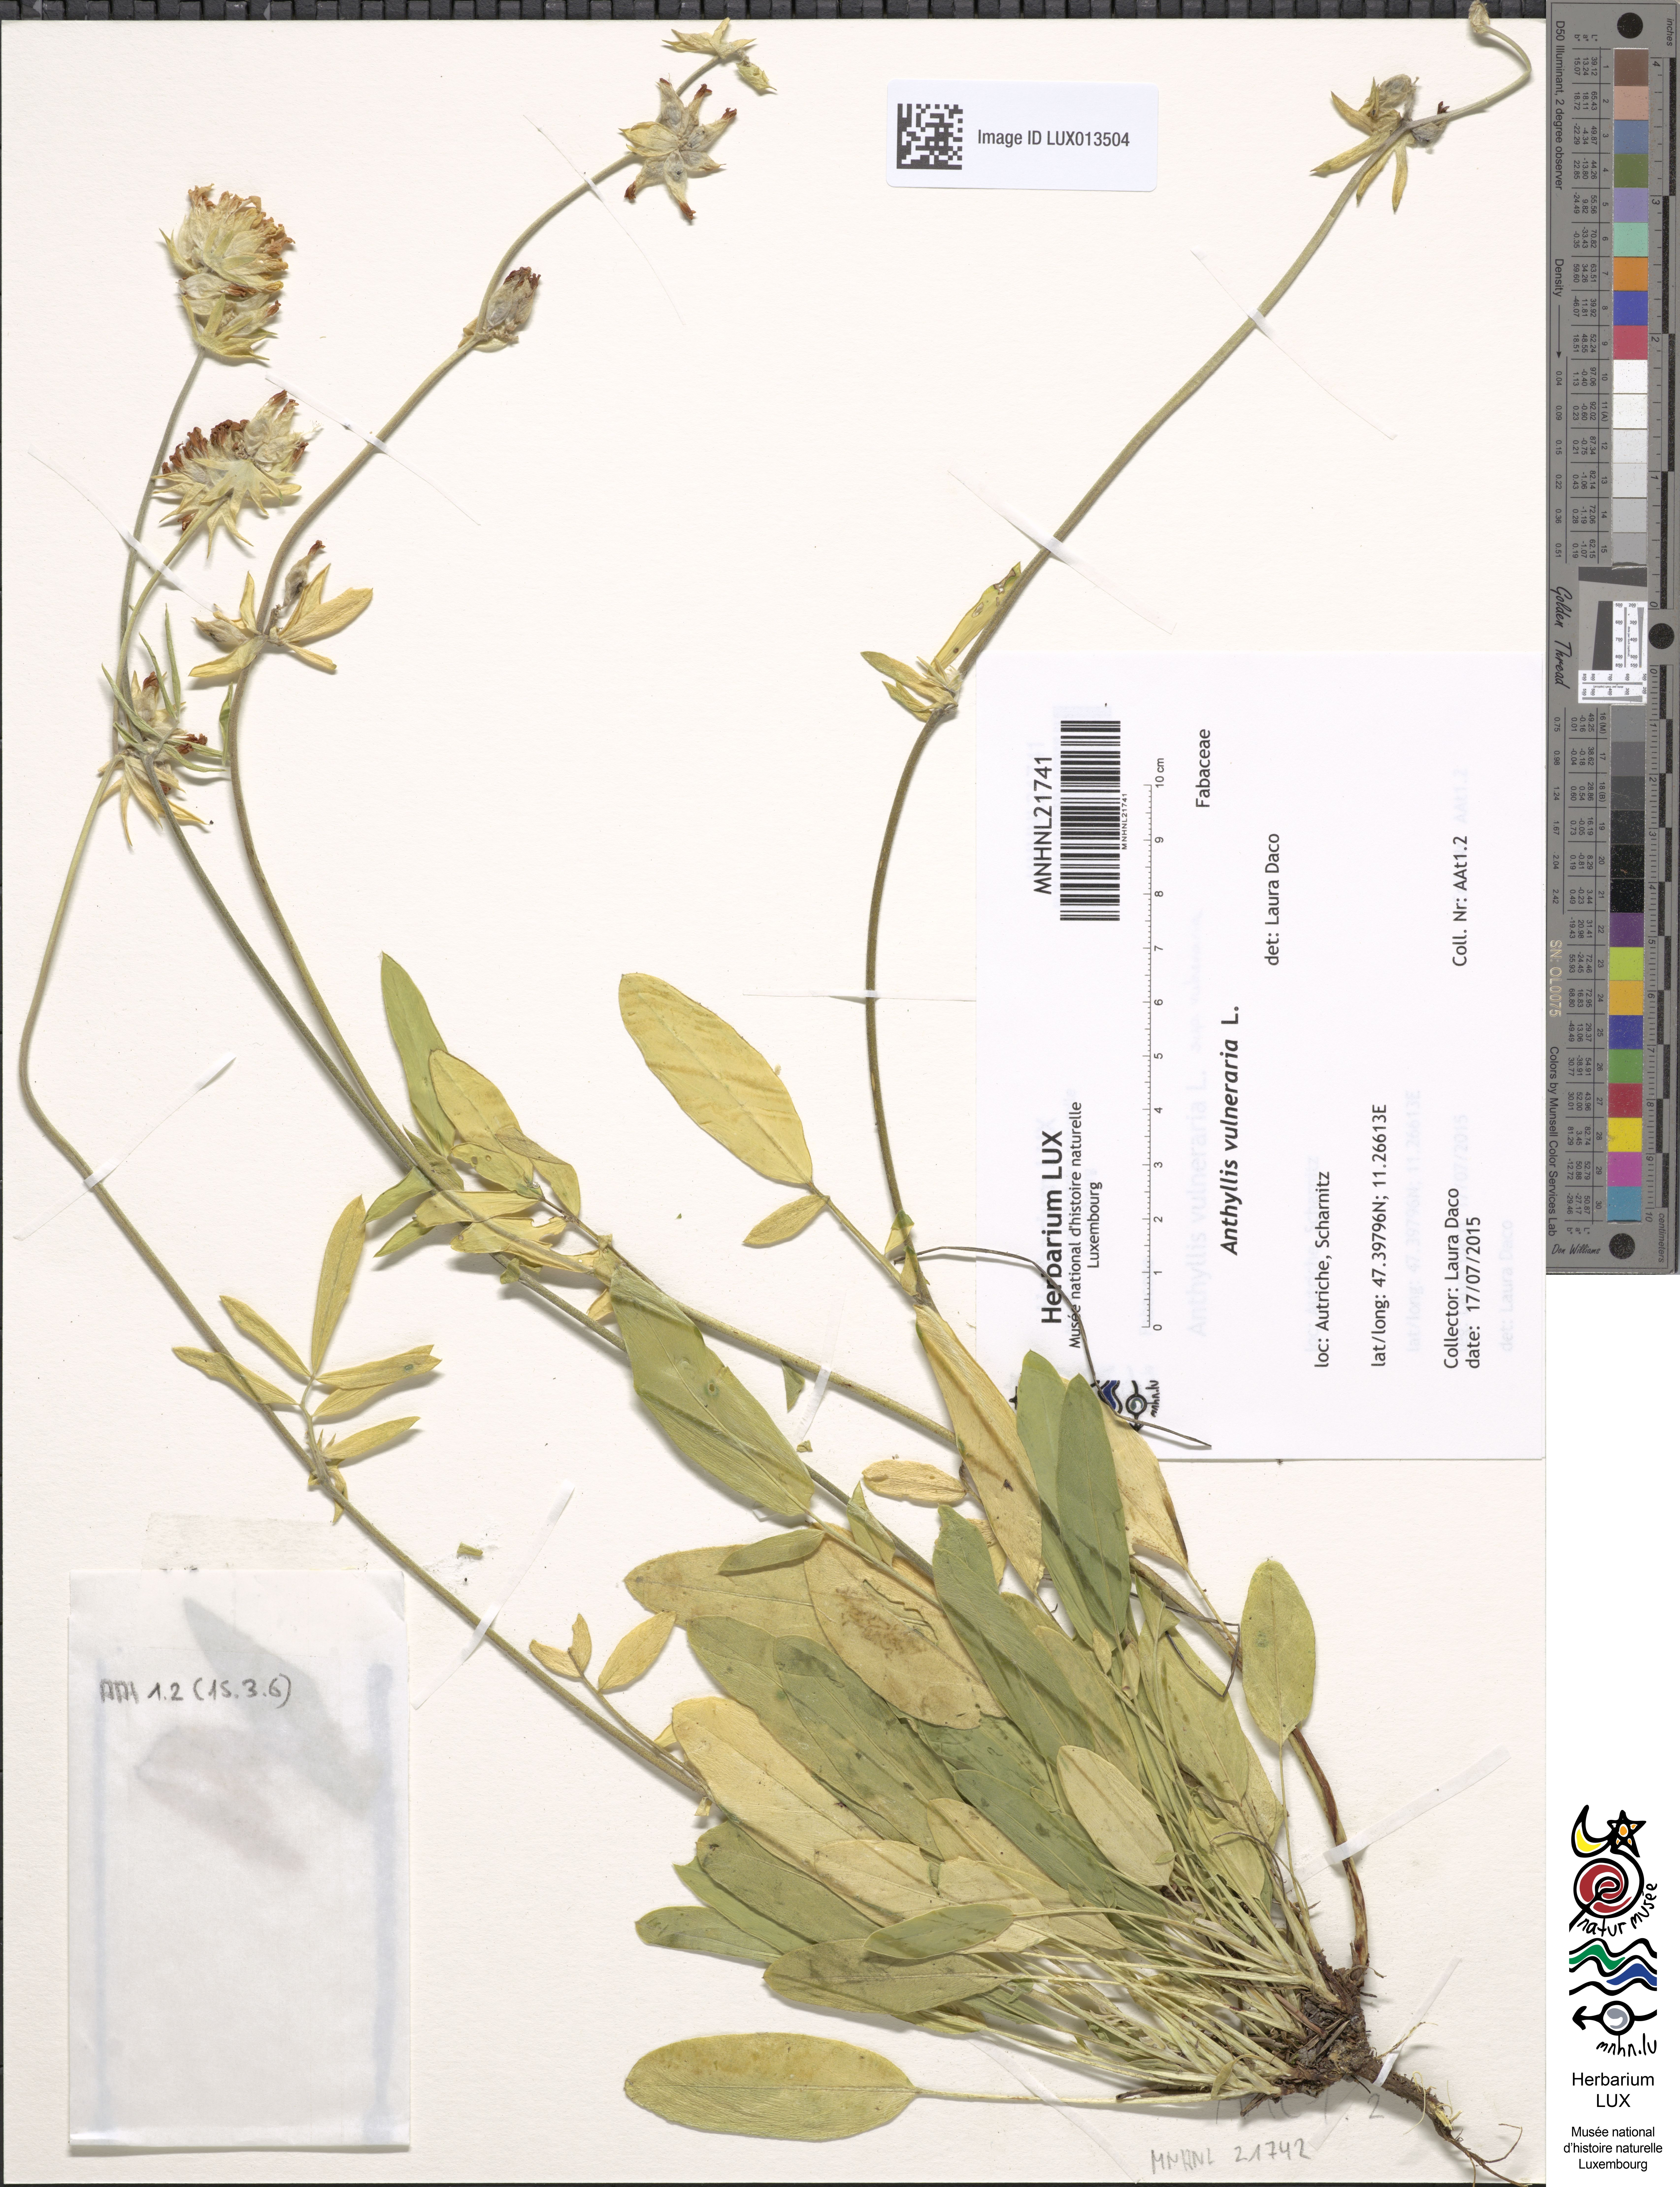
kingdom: Plantae
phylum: Tracheophyta
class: Magnoliopsida
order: Fabales
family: Fabaceae
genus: Anthyllis
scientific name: Anthyllis vulneraria
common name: Kidney vetch
